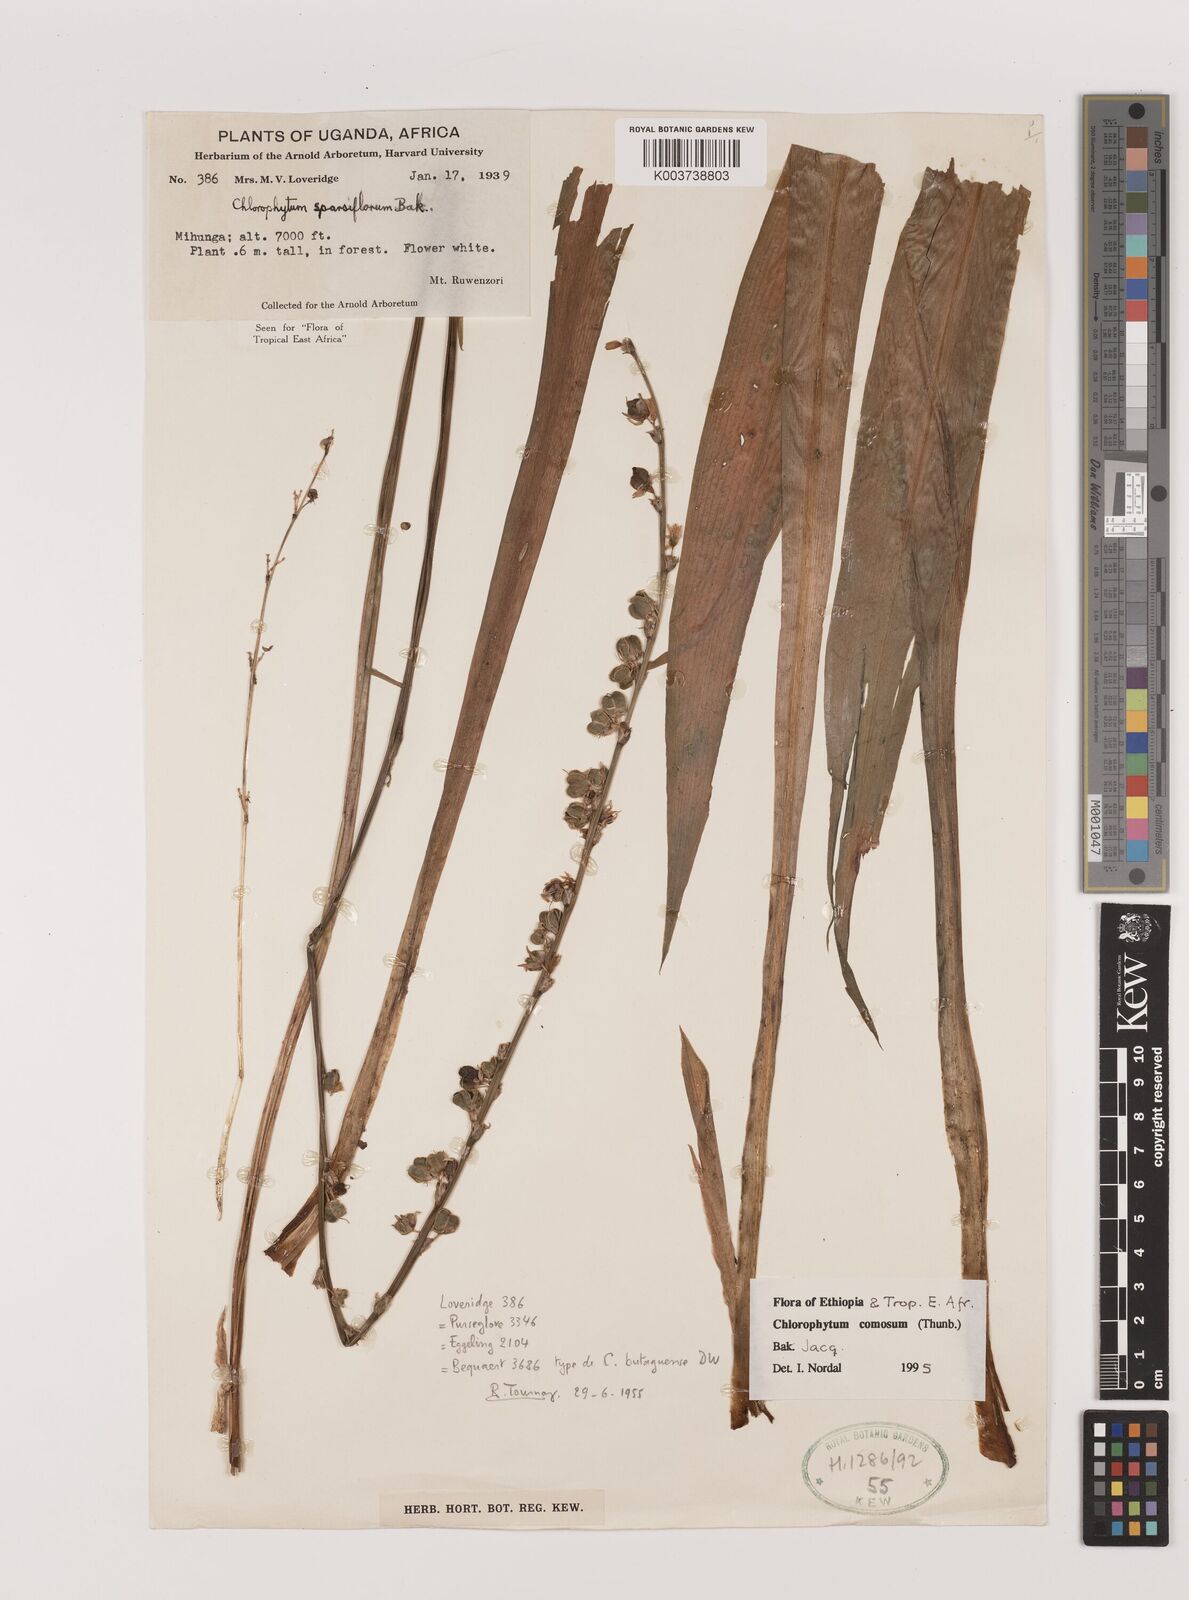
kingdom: Plantae
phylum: Tracheophyta
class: Liliopsida
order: Asparagales
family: Asparagaceae
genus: Chlorophytum
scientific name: Chlorophytum comosum
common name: Spider plant
